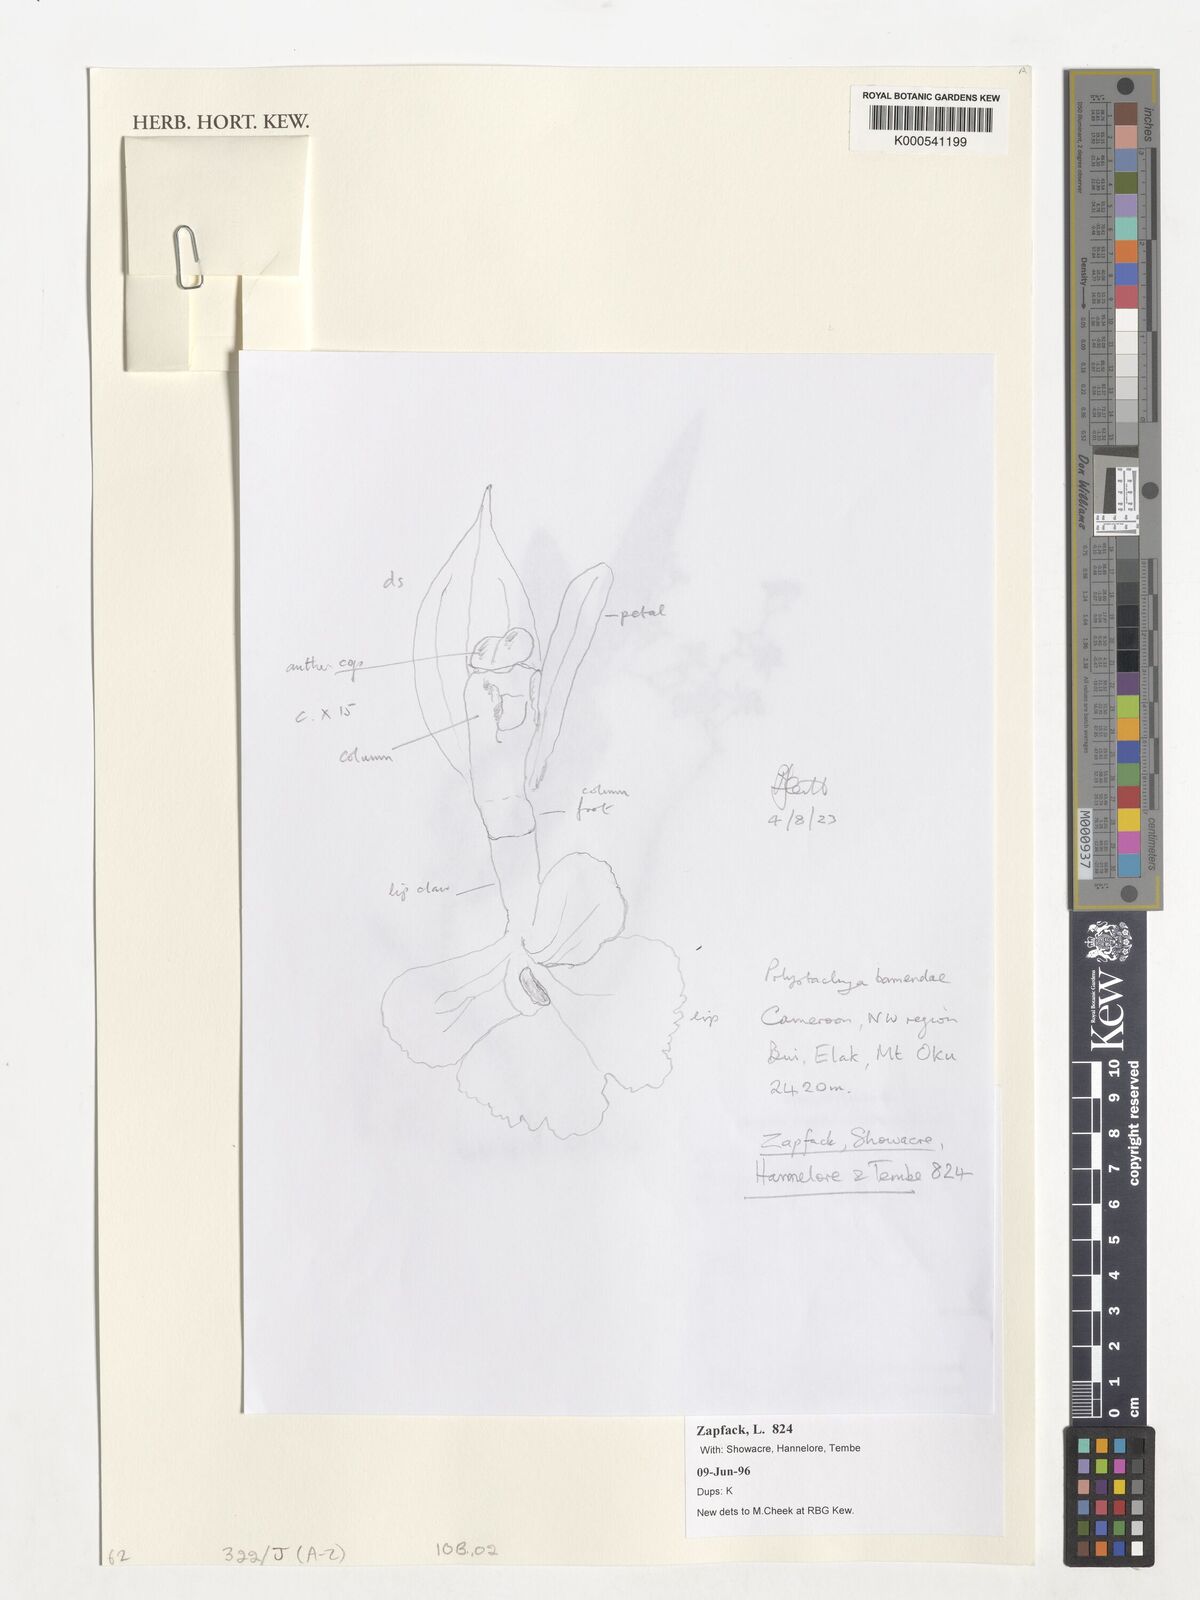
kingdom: Plantae
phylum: Tracheophyta
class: Liliopsida
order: Asparagales
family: Orchidaceae
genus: Polystachya
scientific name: Polystachya bamendae
